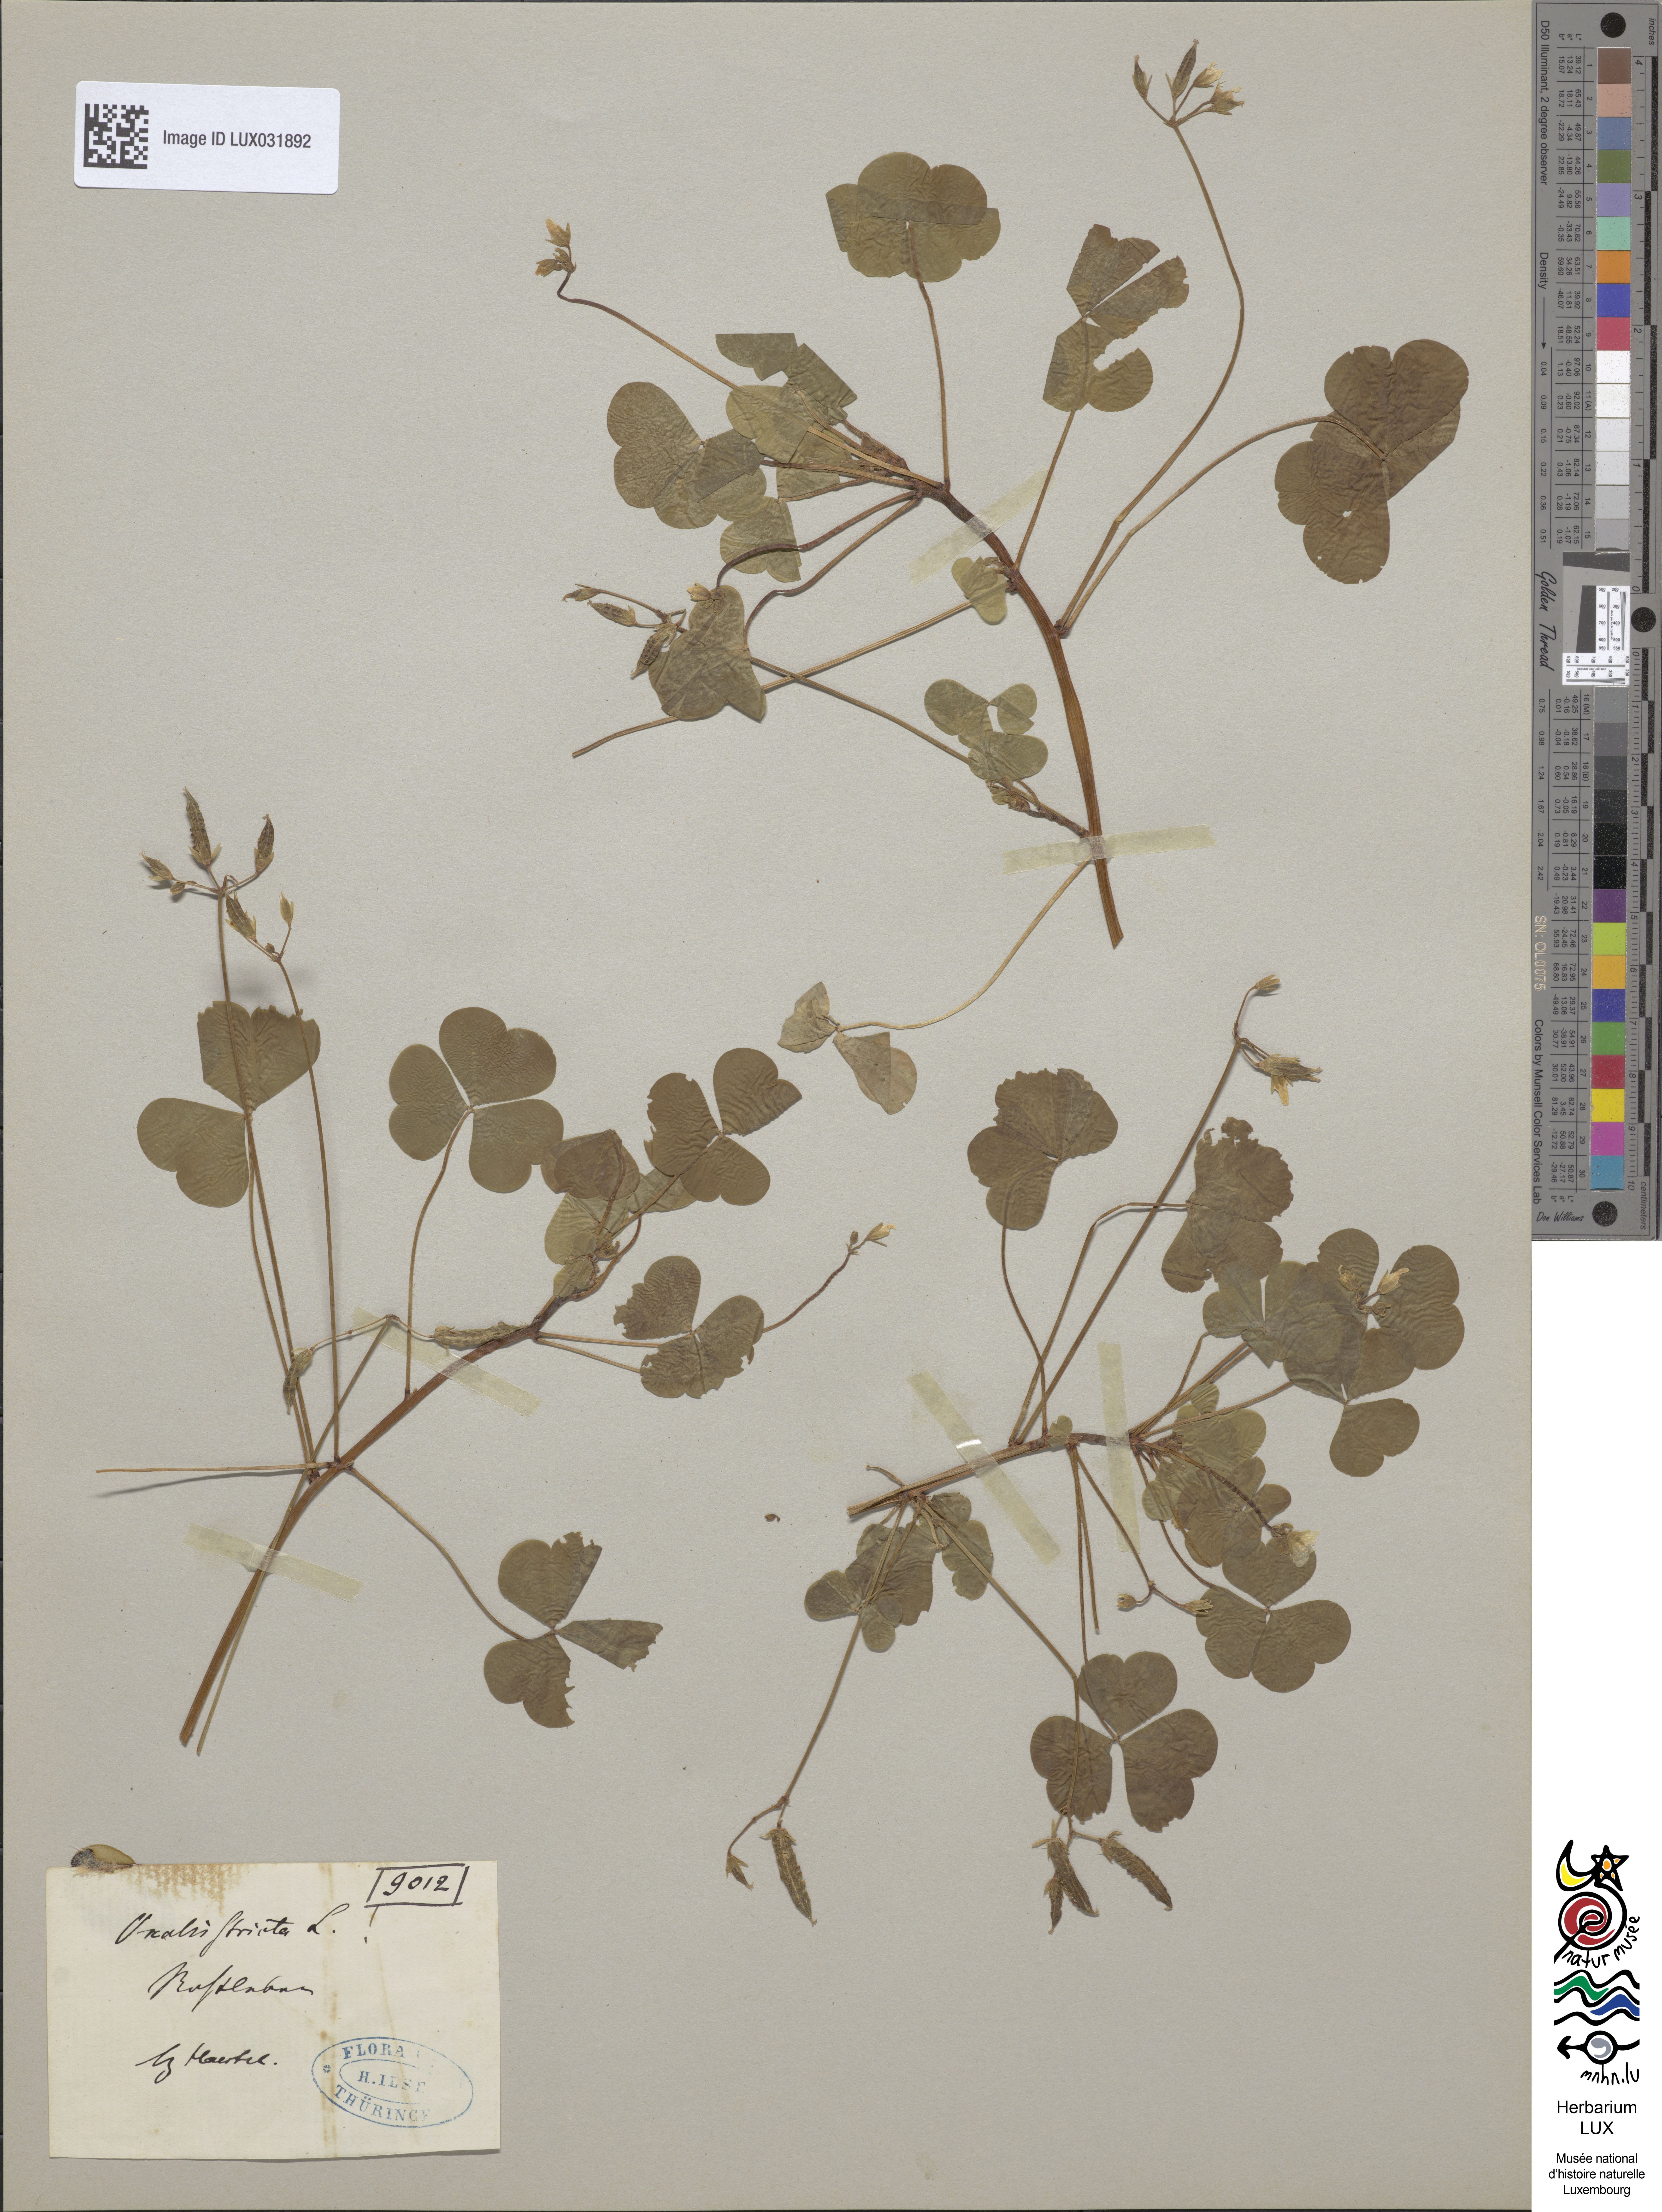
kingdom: Plantae
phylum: Tracheophyta
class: Magnoliopsida
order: Oxalidales
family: Oxalidaceae
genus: Oxalis
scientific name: Oxalis stricta
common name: Upright yellow-sorrel
